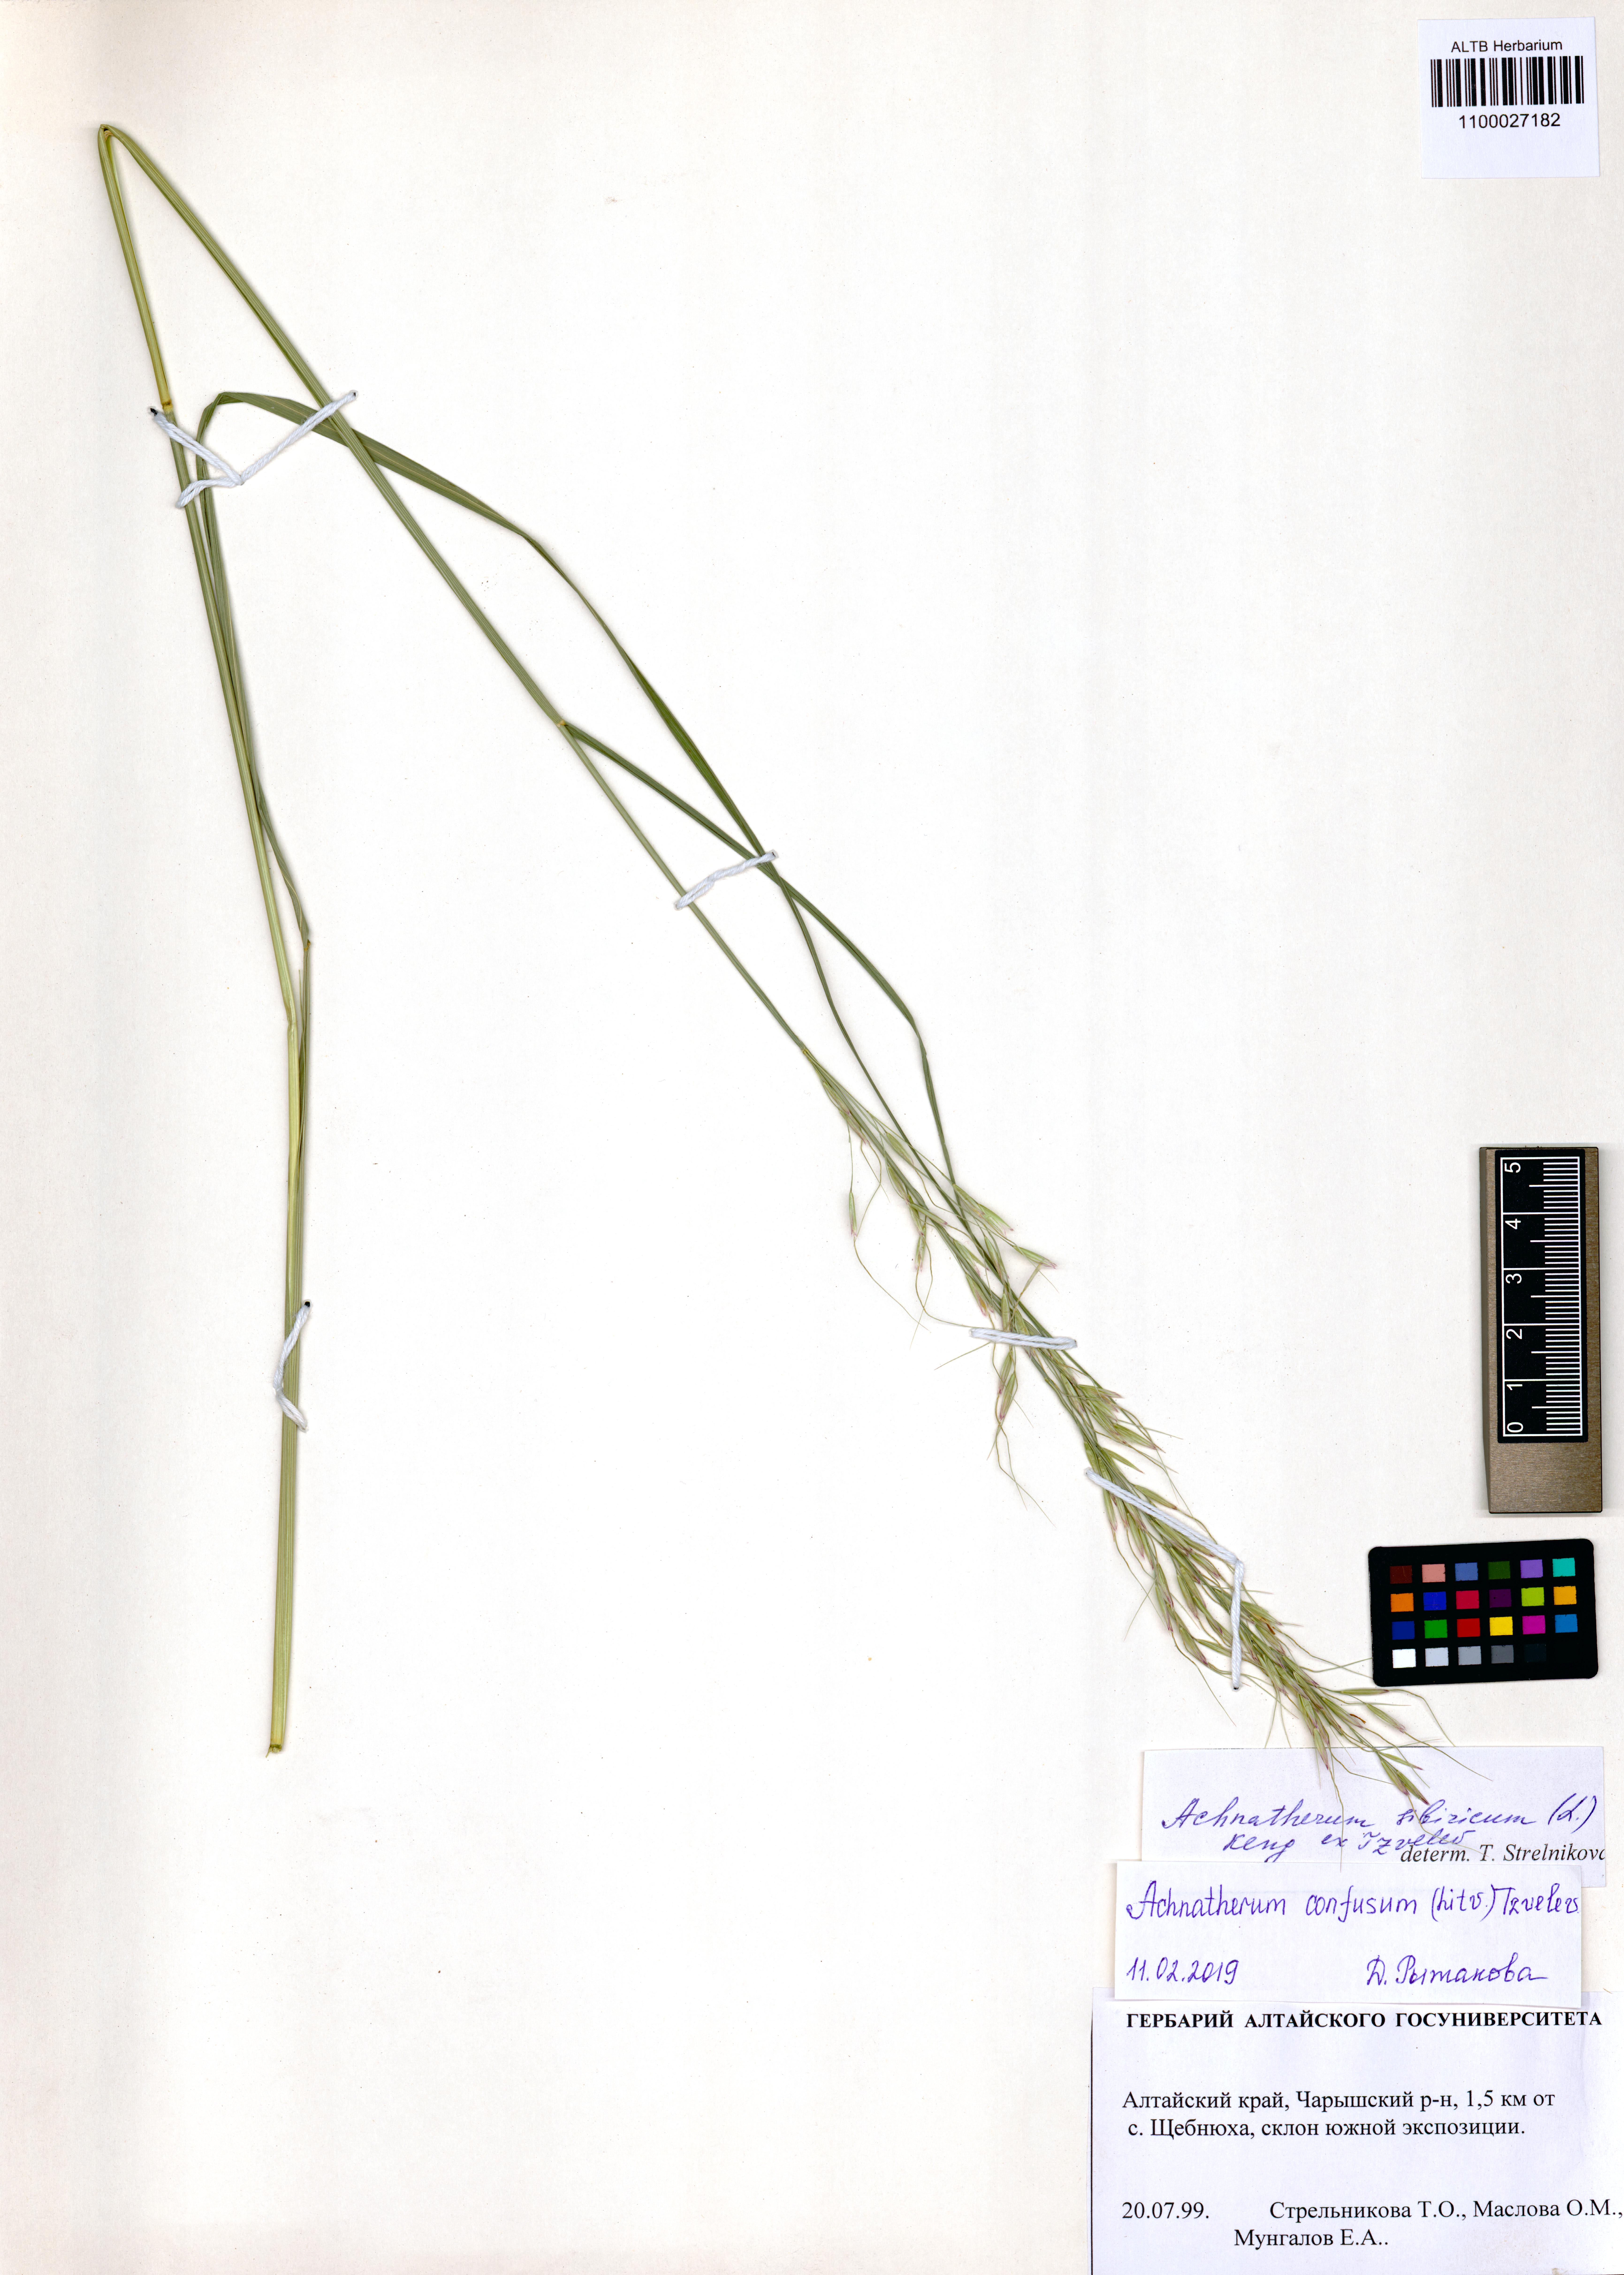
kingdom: Plantae
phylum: Tracheophyta
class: Liliopsida
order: Poales
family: Poaceae
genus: Achnatherum
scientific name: Achnatherum confusum
